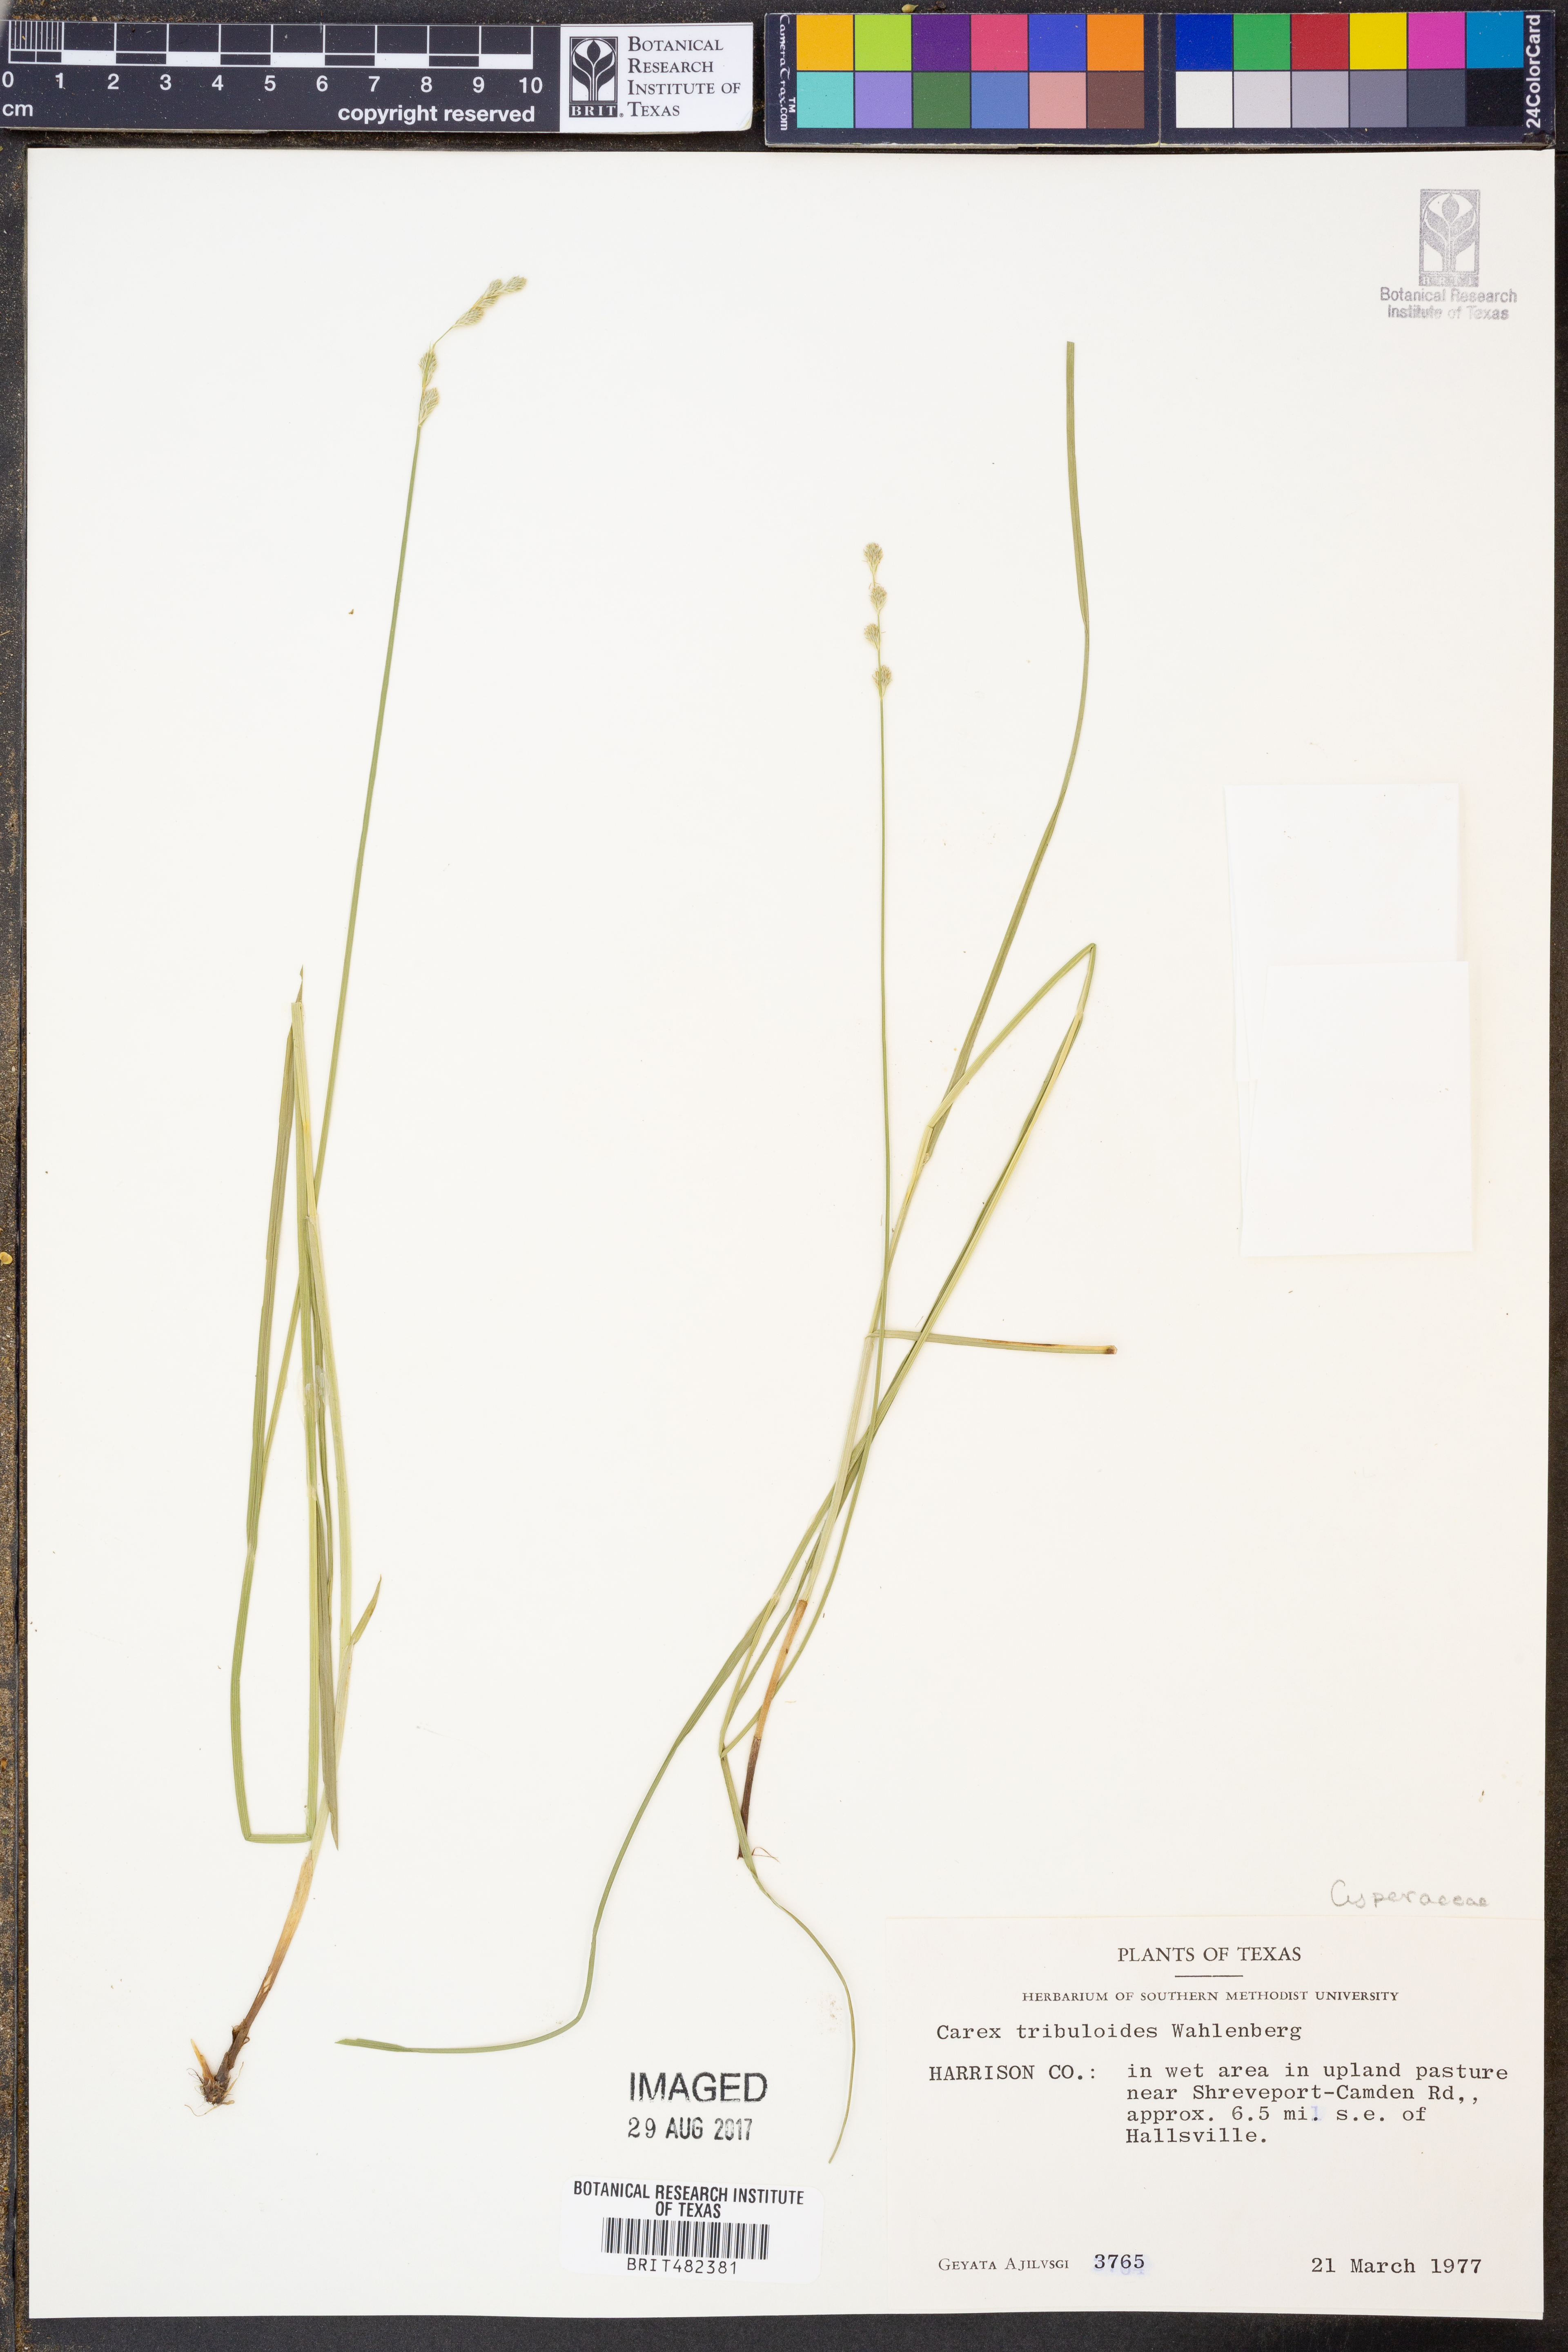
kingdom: Plantae
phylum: Tracheophyta
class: Liliopsida
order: Poales
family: Cyperaceae
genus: Carex
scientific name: Carex tribuloides
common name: Blunt broom sedge
